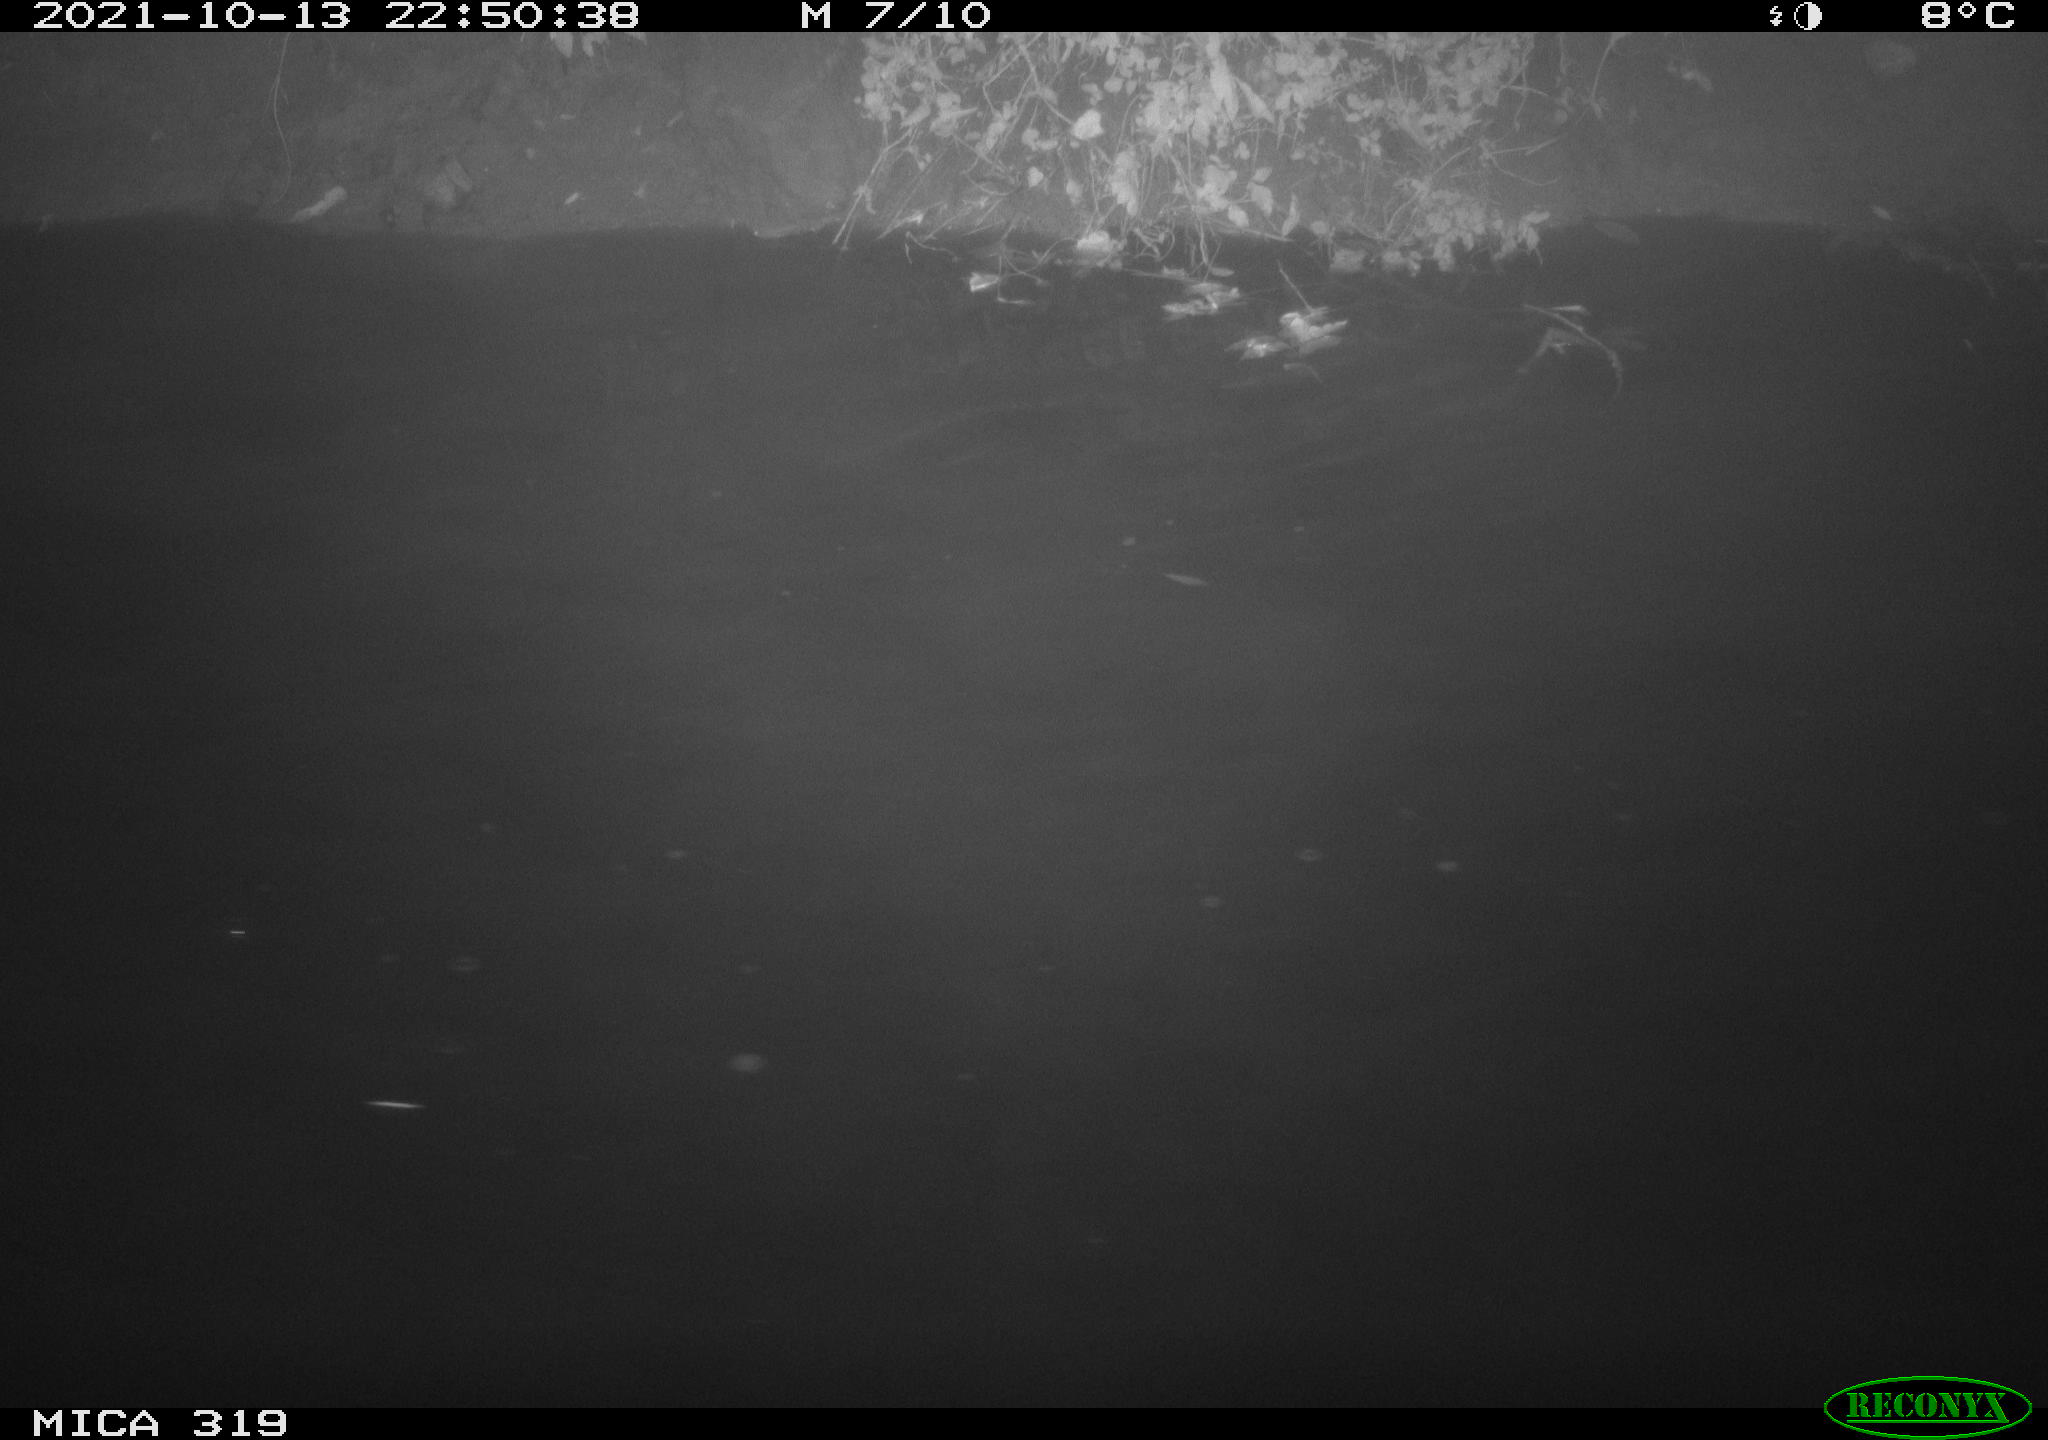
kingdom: Animalia
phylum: Chordata
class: Aves
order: Anseriformes
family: Anatidae
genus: Anas
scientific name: Anas platyrhynchos
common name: Mallard
